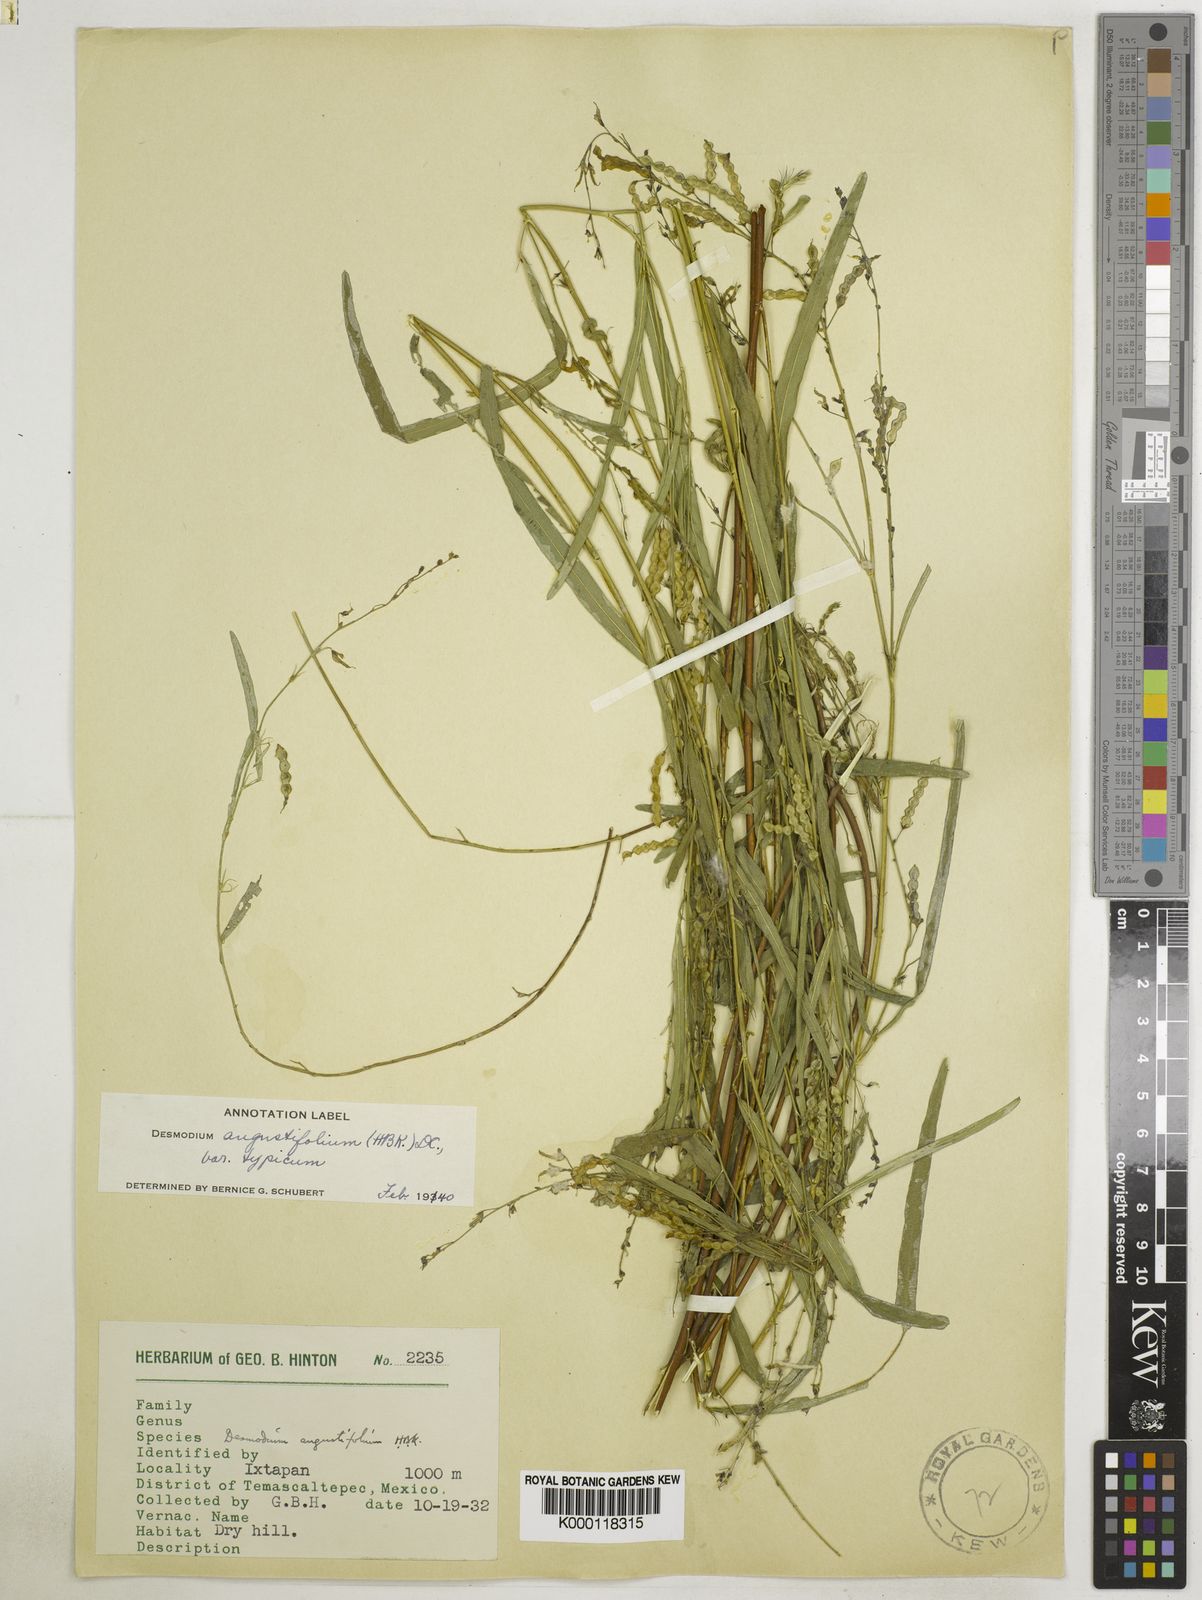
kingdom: Plantae
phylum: Tracheophyta
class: Magnoliopsida
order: Fabales
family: Fabaceae
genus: Desmodium
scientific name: Desmodium angustifolium
